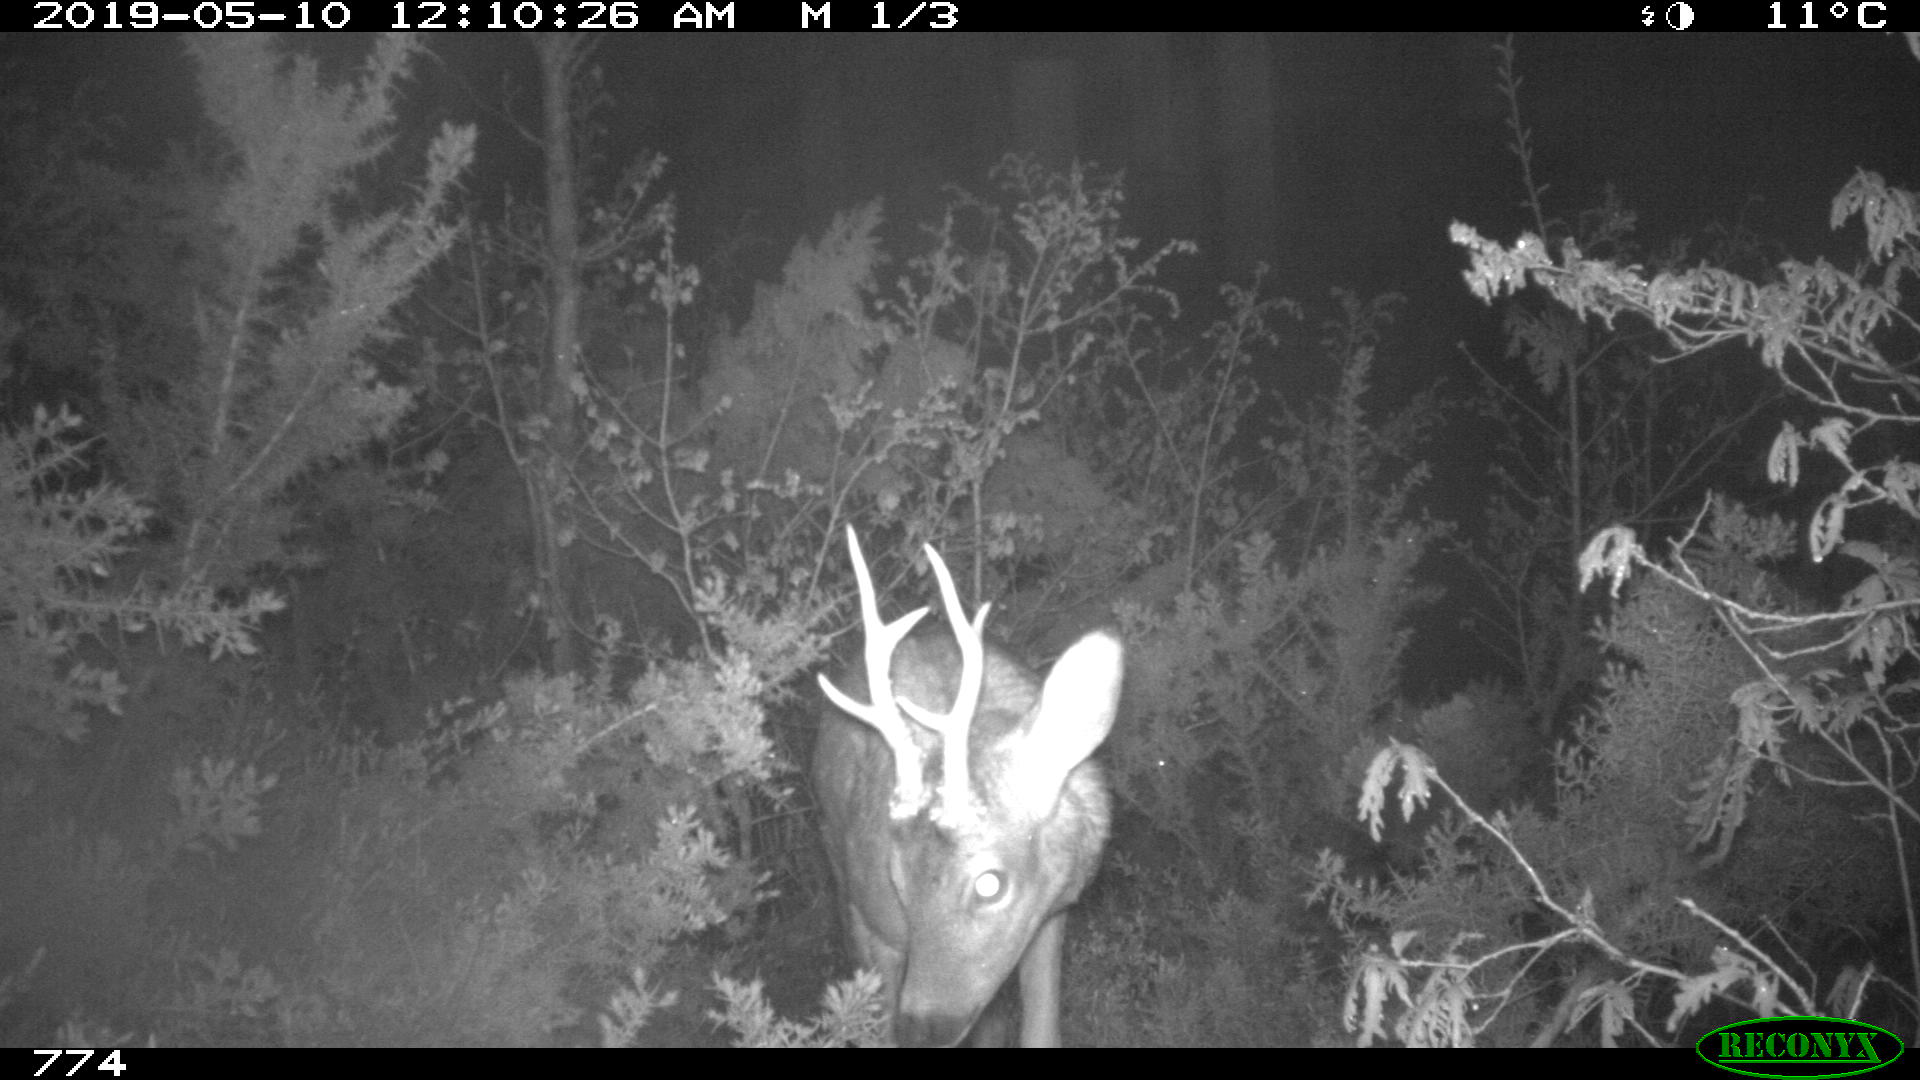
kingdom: Animalia
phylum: Chordata
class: Mammalia
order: Artiodactyla
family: Cervidae
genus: Capreolus
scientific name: Capreolus capreolus
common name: Western roe deer
